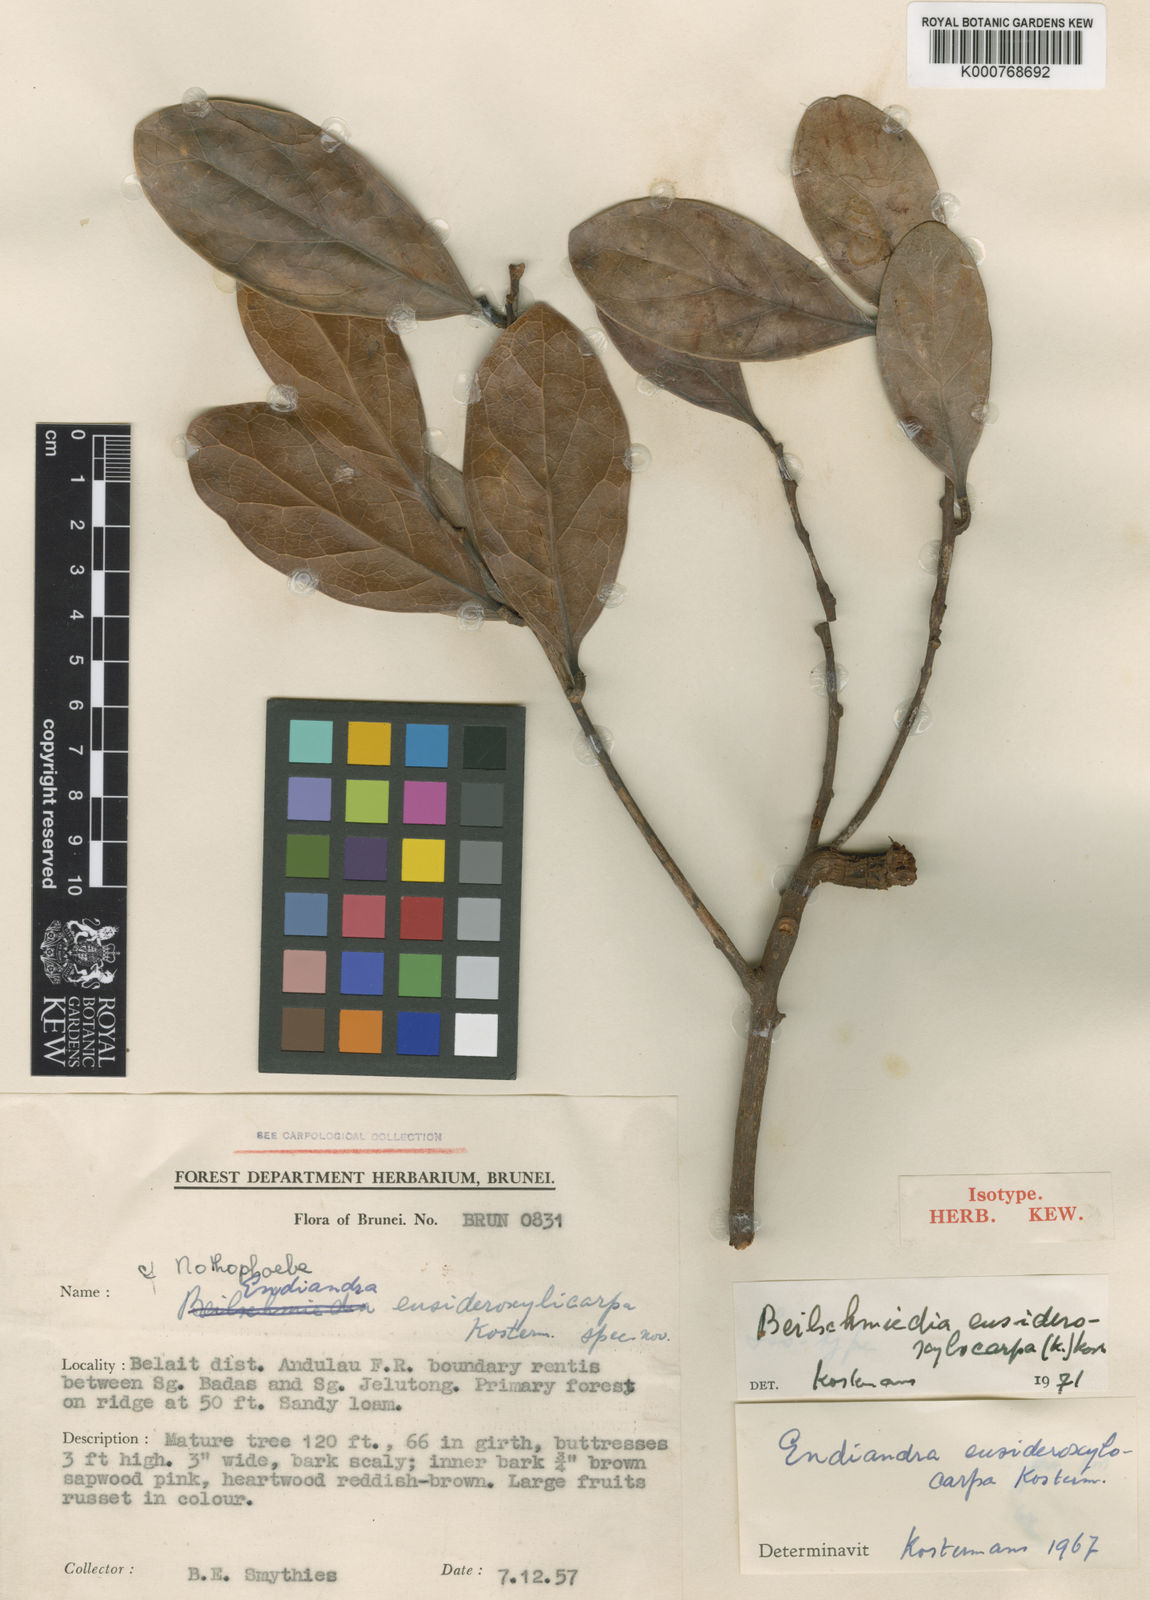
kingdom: Plantae
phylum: Tracheophyta
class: Magnoliopsida
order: Laurales
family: Lauraceae
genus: Endiandra
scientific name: Endiandra eusideroxylocarpa
